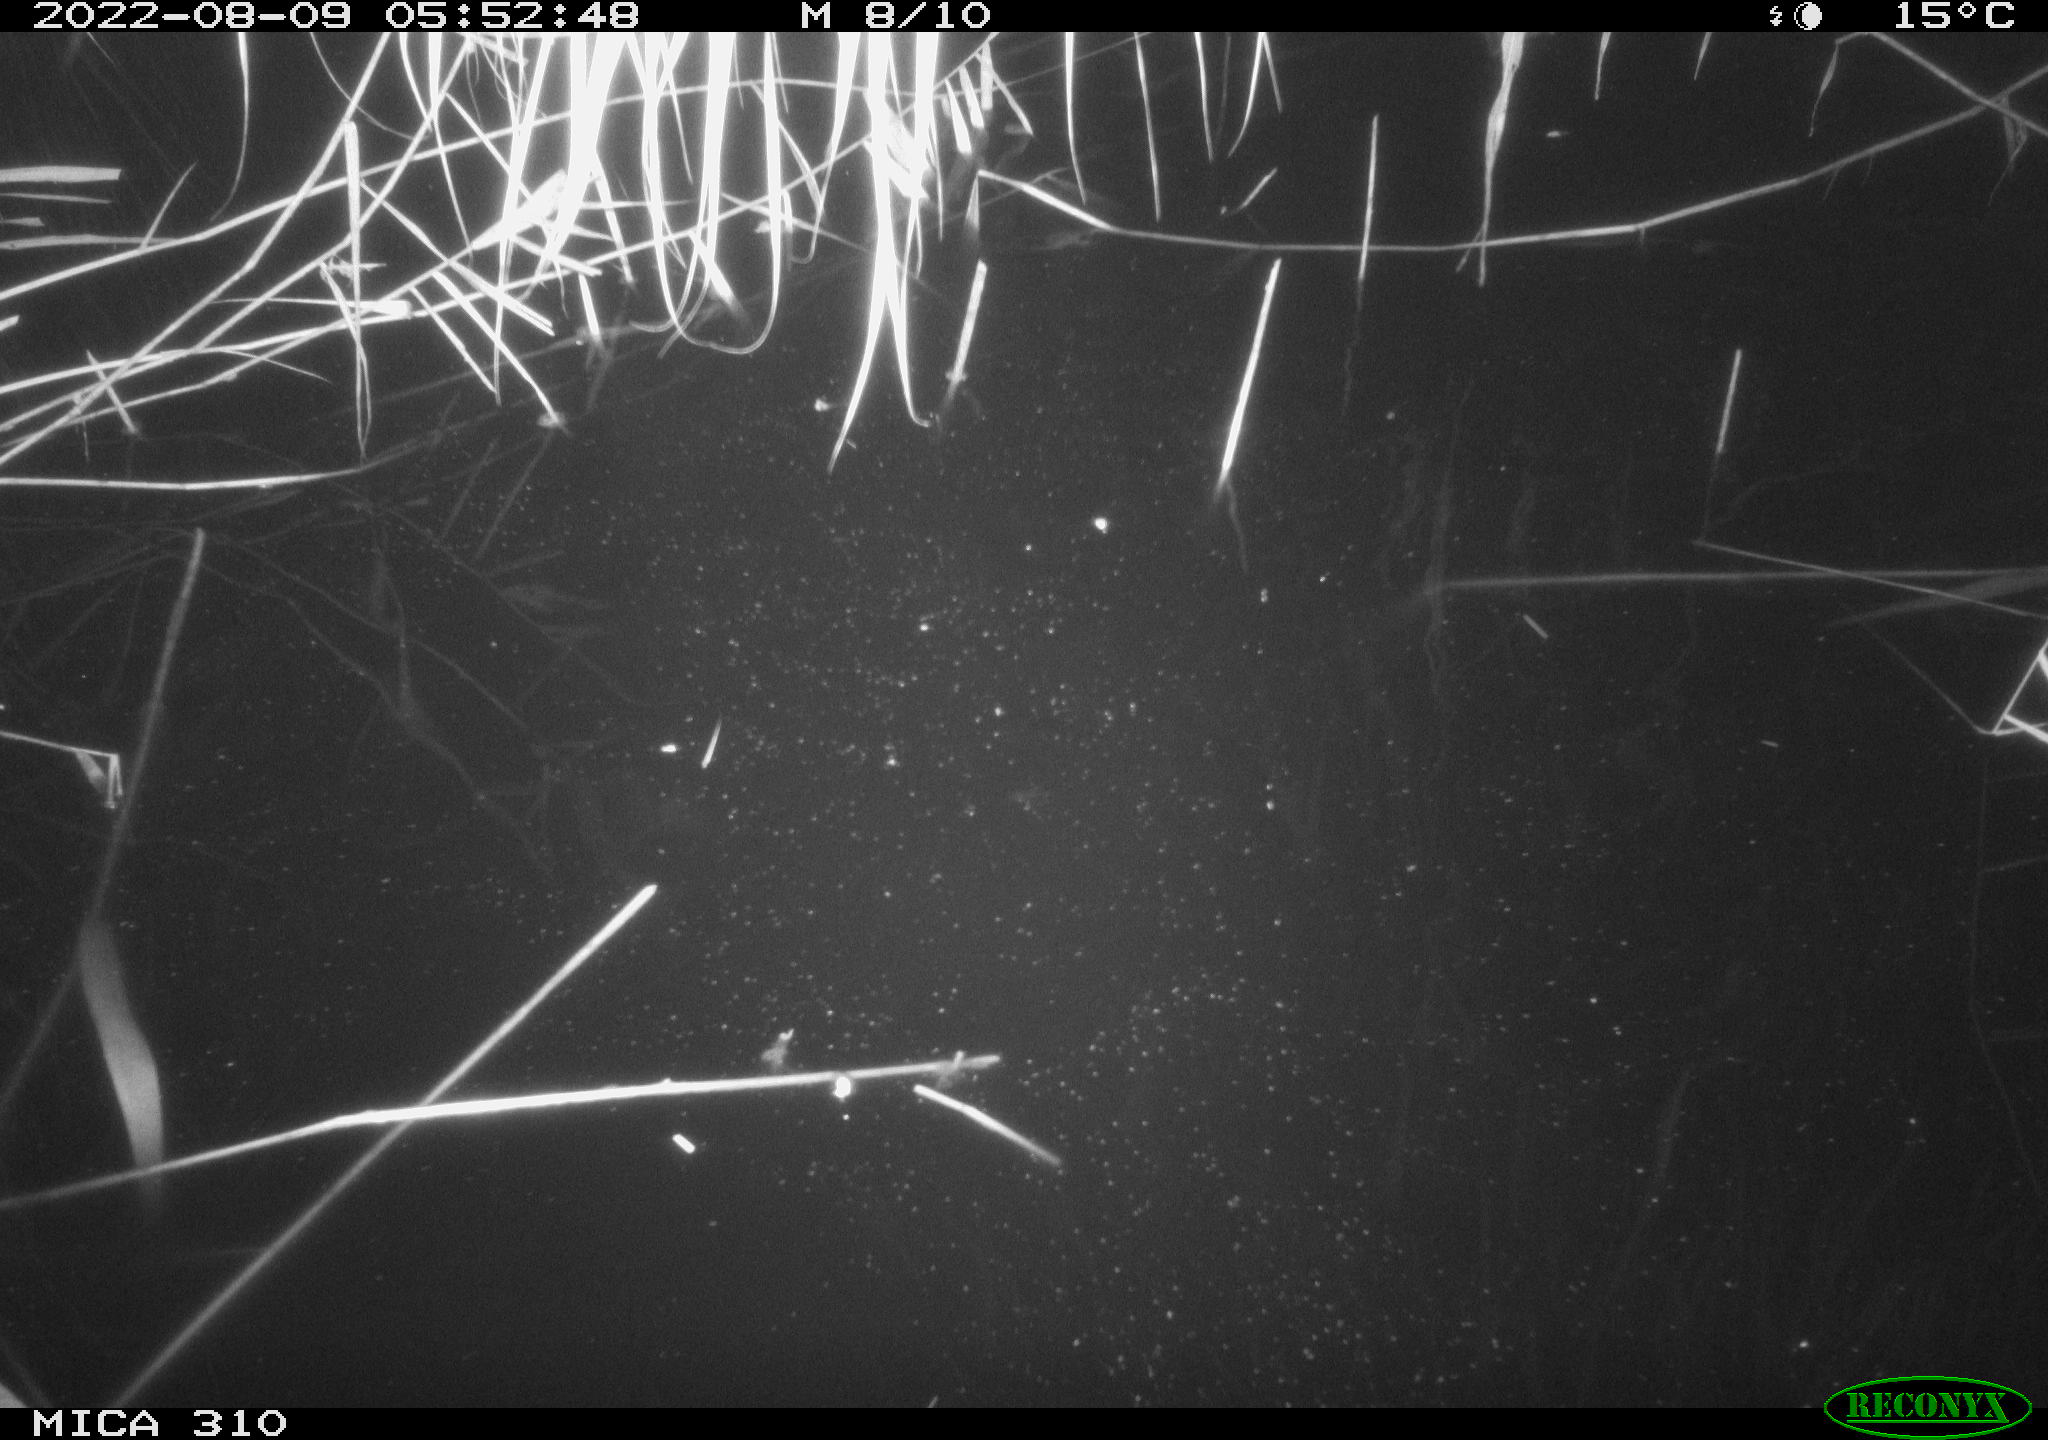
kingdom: Animalia
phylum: Chordata
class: Aves
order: Gruiformes
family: Rallidae
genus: Fulica
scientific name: Fulica atra
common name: Eurasian coot
